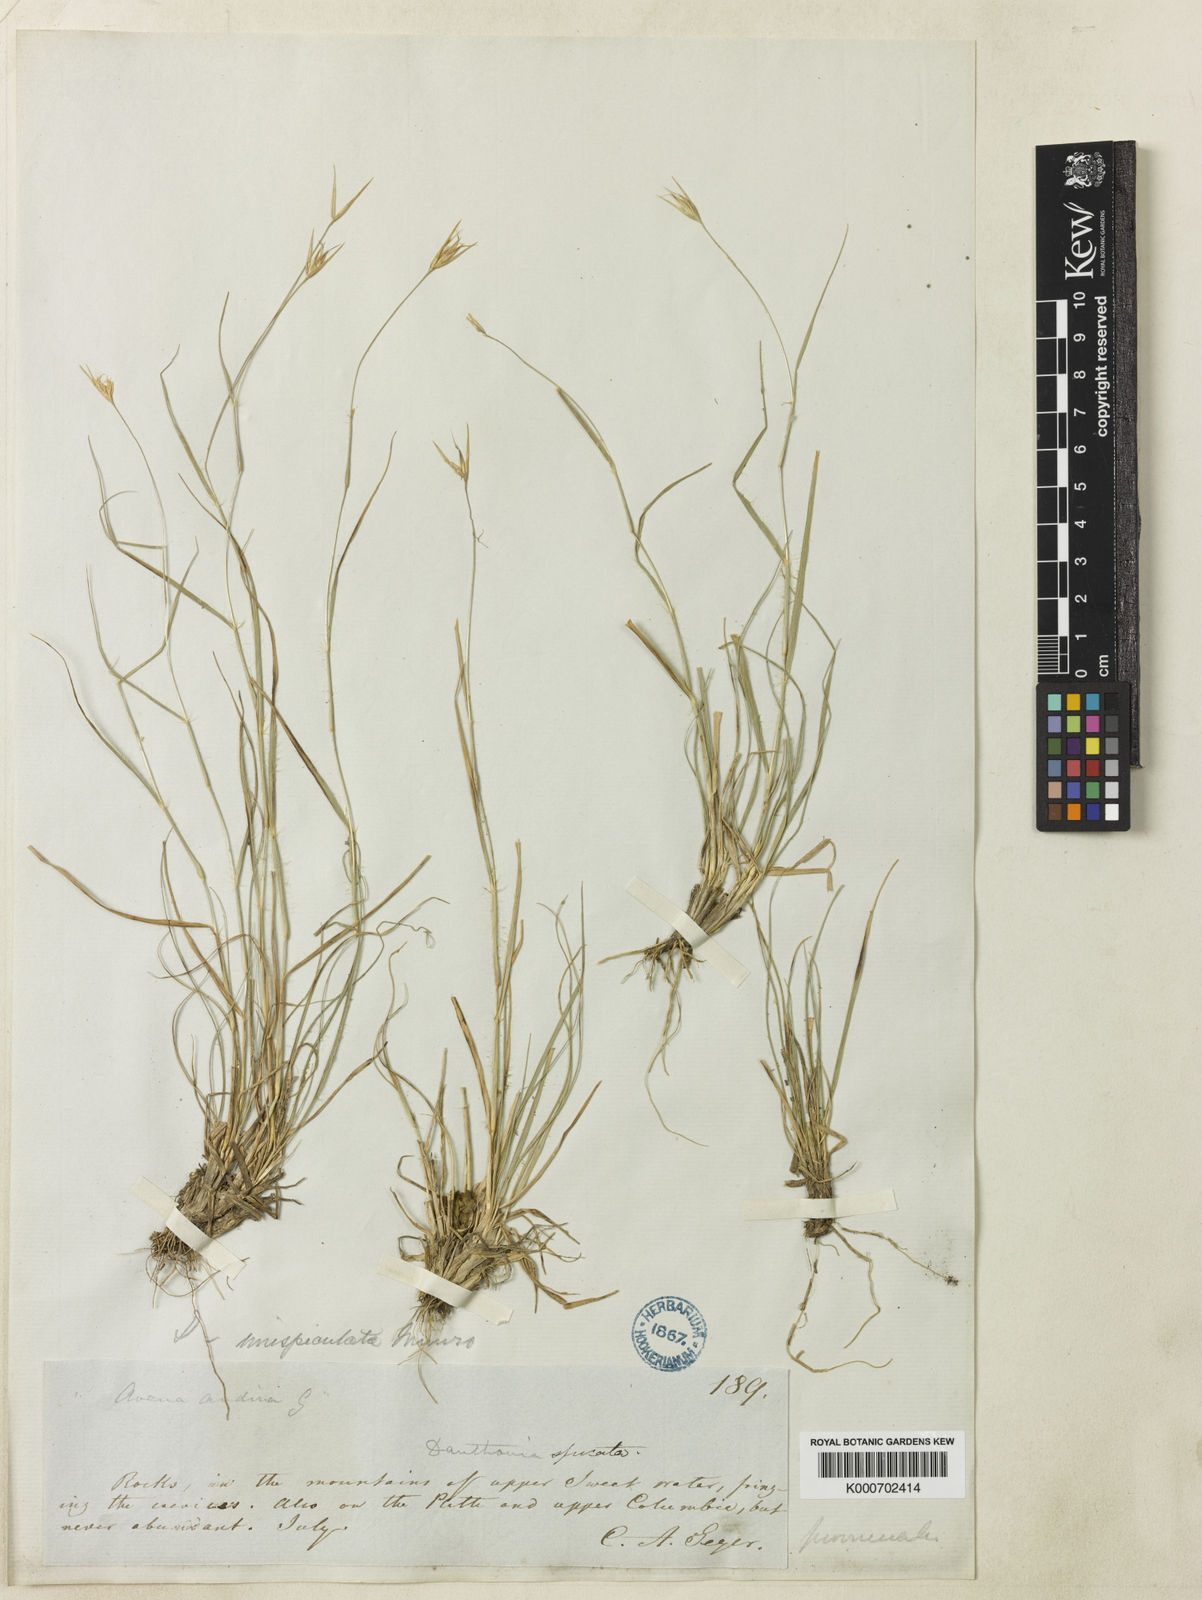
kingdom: Plantae
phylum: Tracheophyta
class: Liliopsida
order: Poales
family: Poaceae
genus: Danthonia
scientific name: Danthonia unispicata
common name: Few-flowered oatgrass
